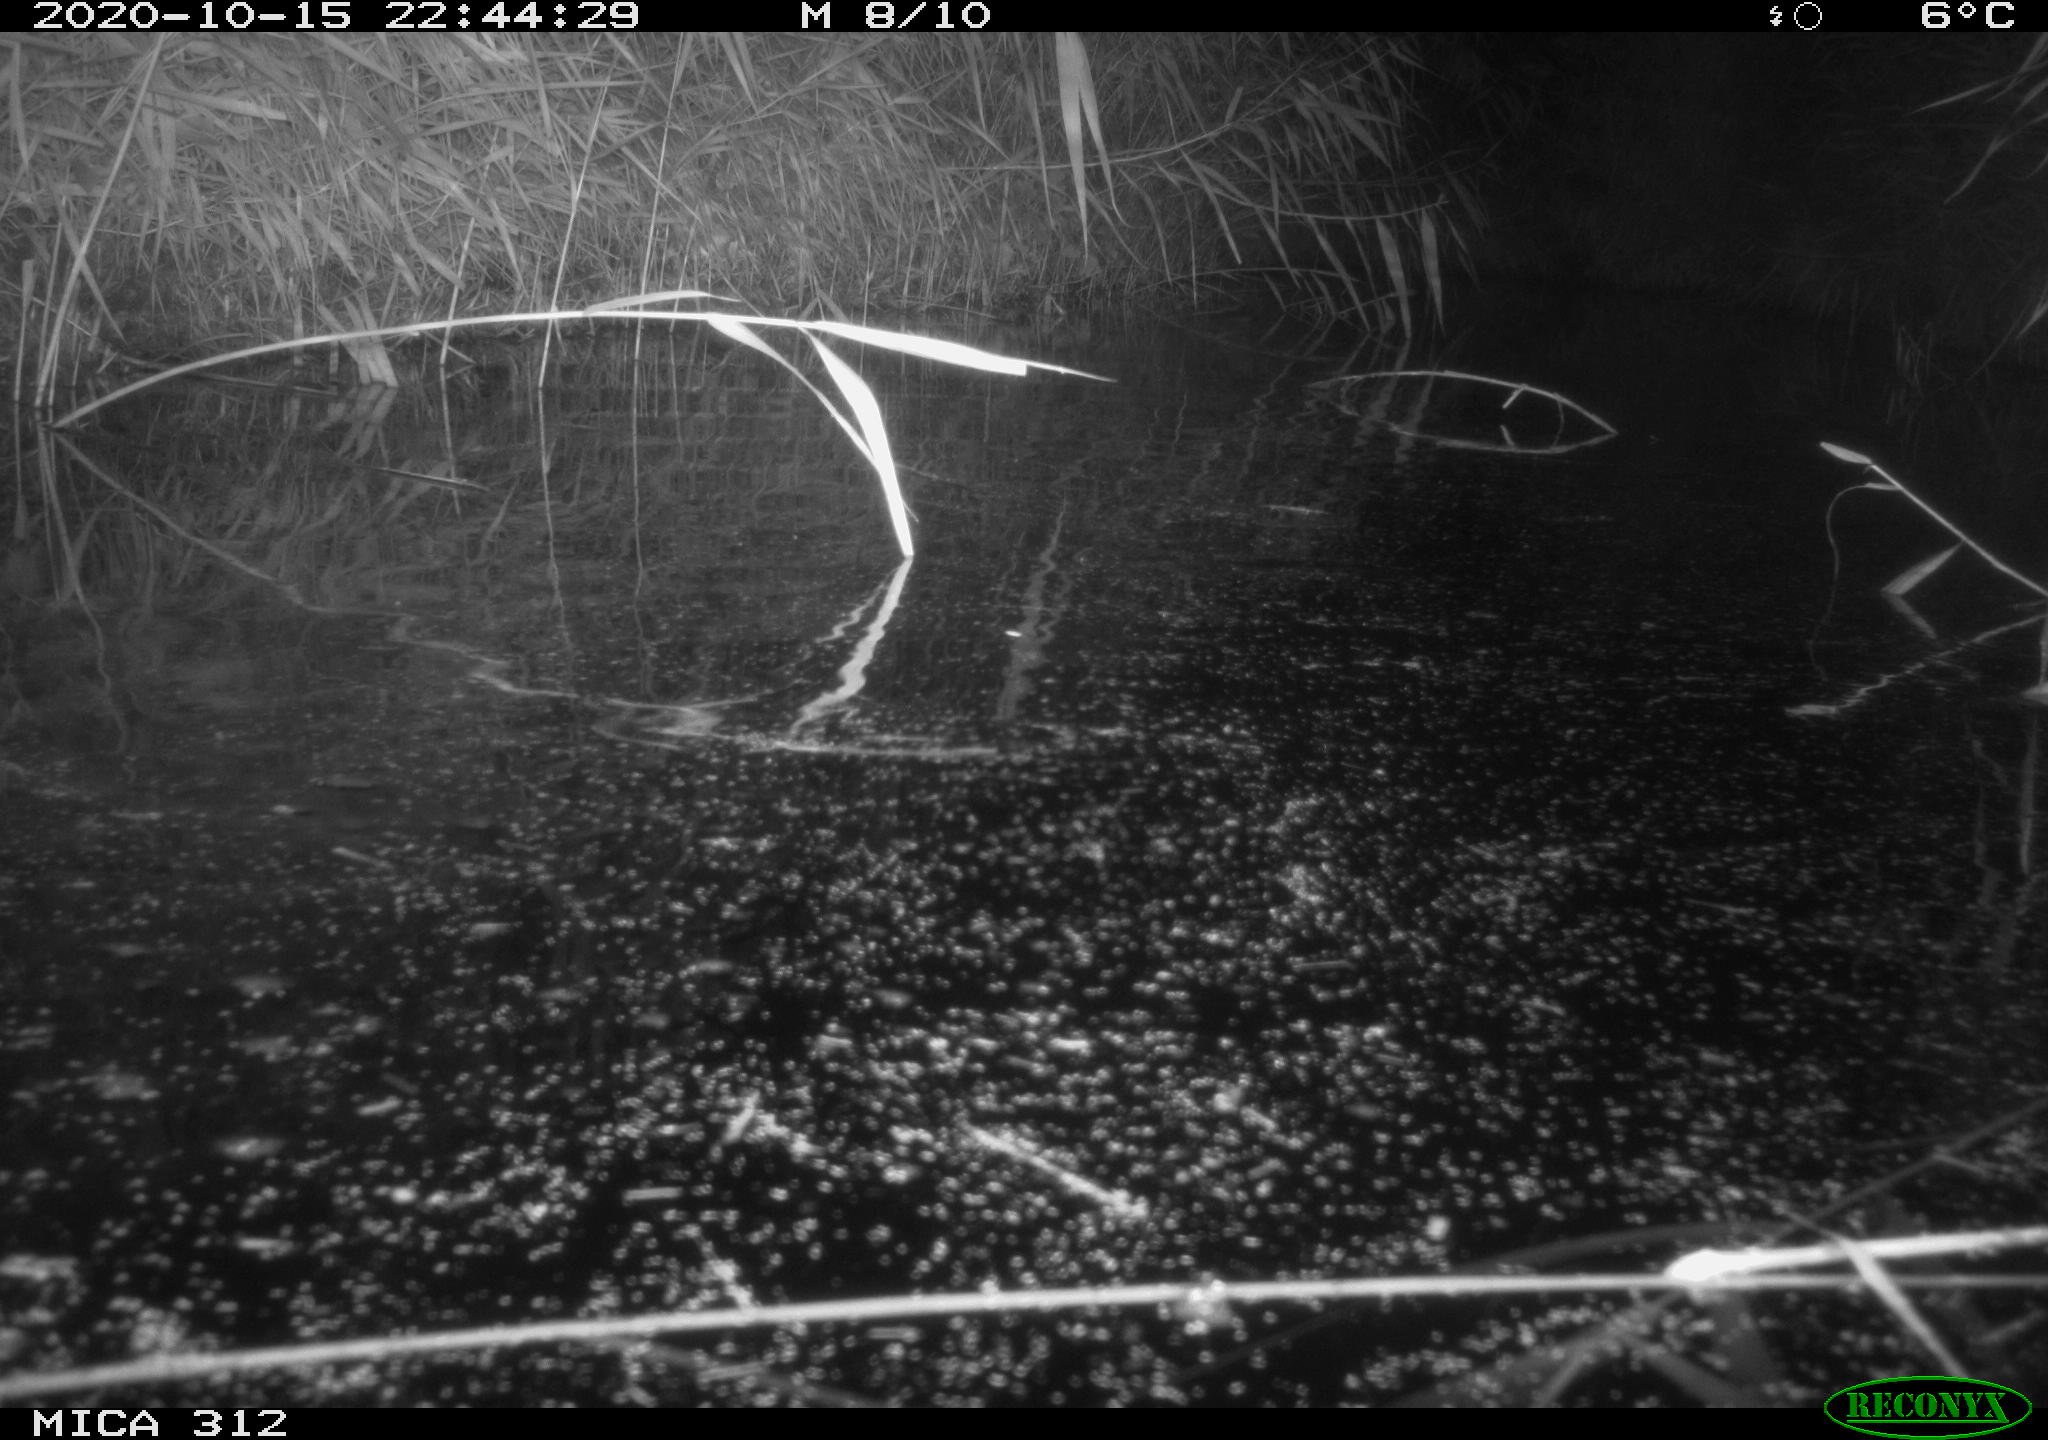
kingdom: Animalia
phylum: Chordata
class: Mammalia
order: Rodentia
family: Muridae
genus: Rattus
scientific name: Rattus norvegicus
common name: Brown rat
